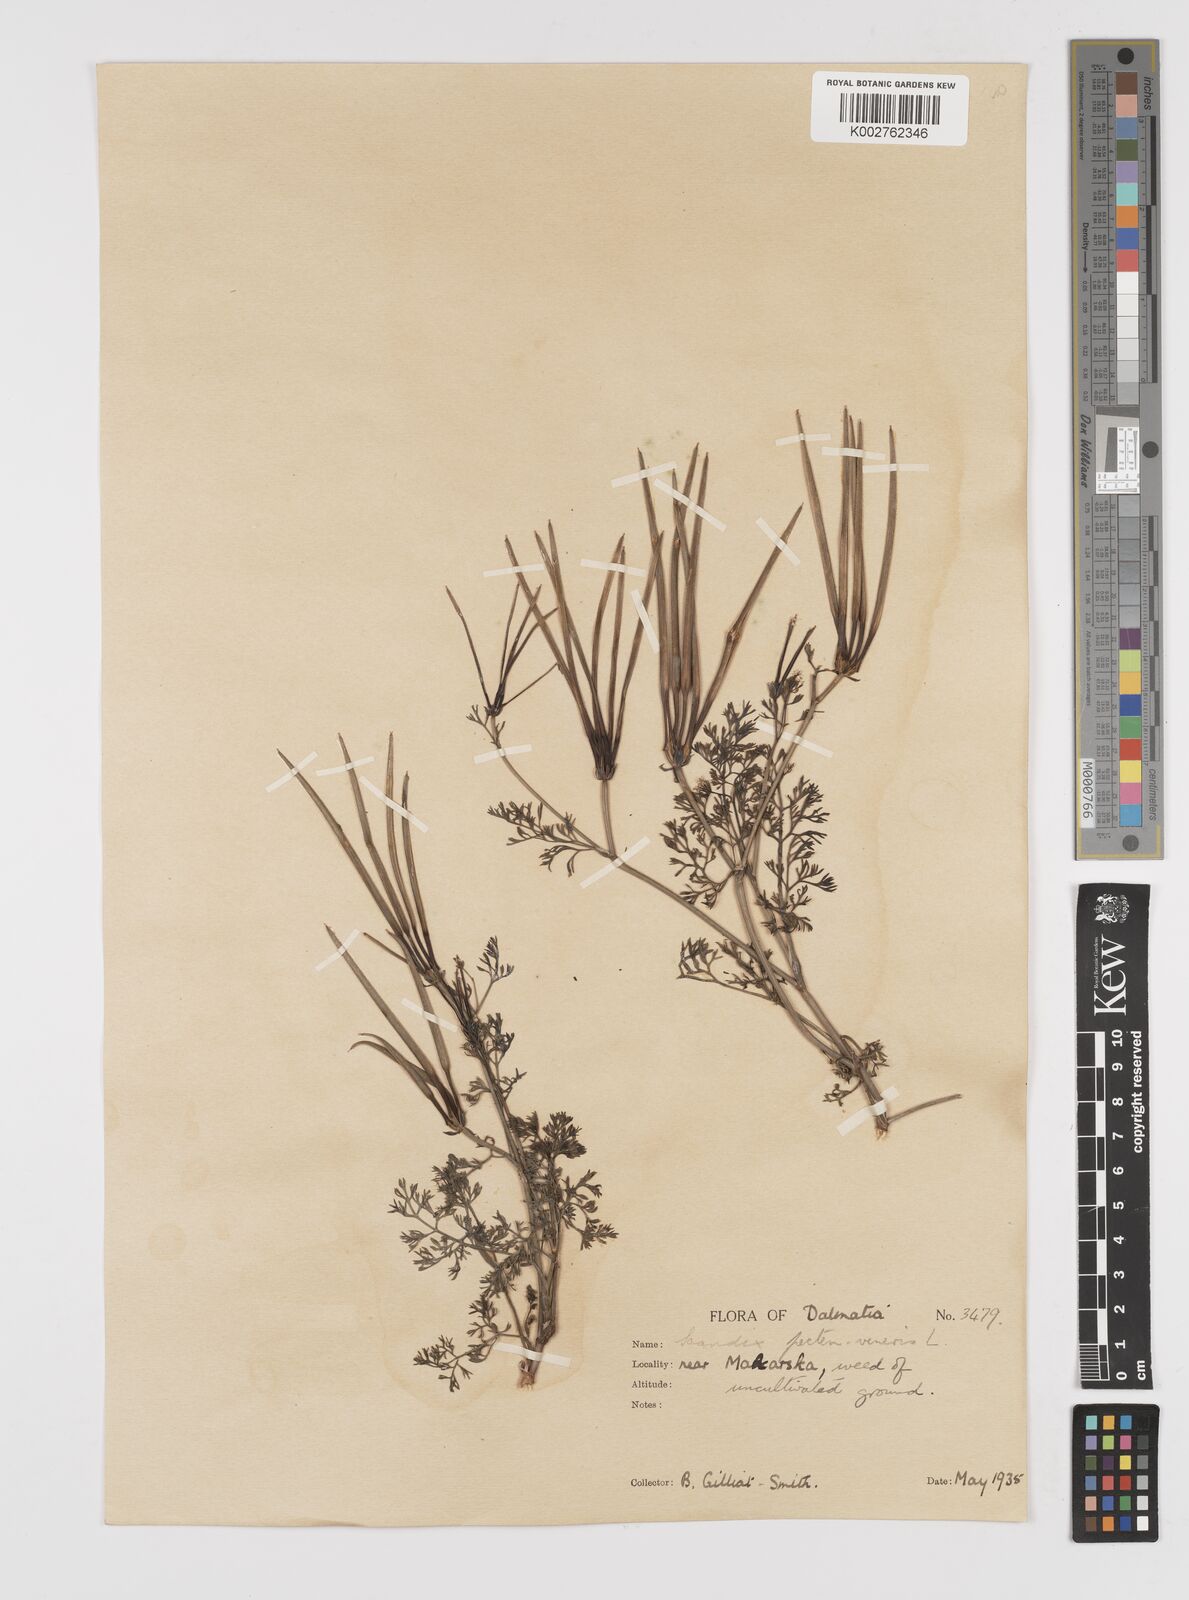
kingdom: Plantae
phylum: Tracheophyta
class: Magnoliopsida
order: Apiales
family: Apiaceae
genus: Scandix
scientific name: Scandix pecten-veneris
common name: Shepherd's-needle
